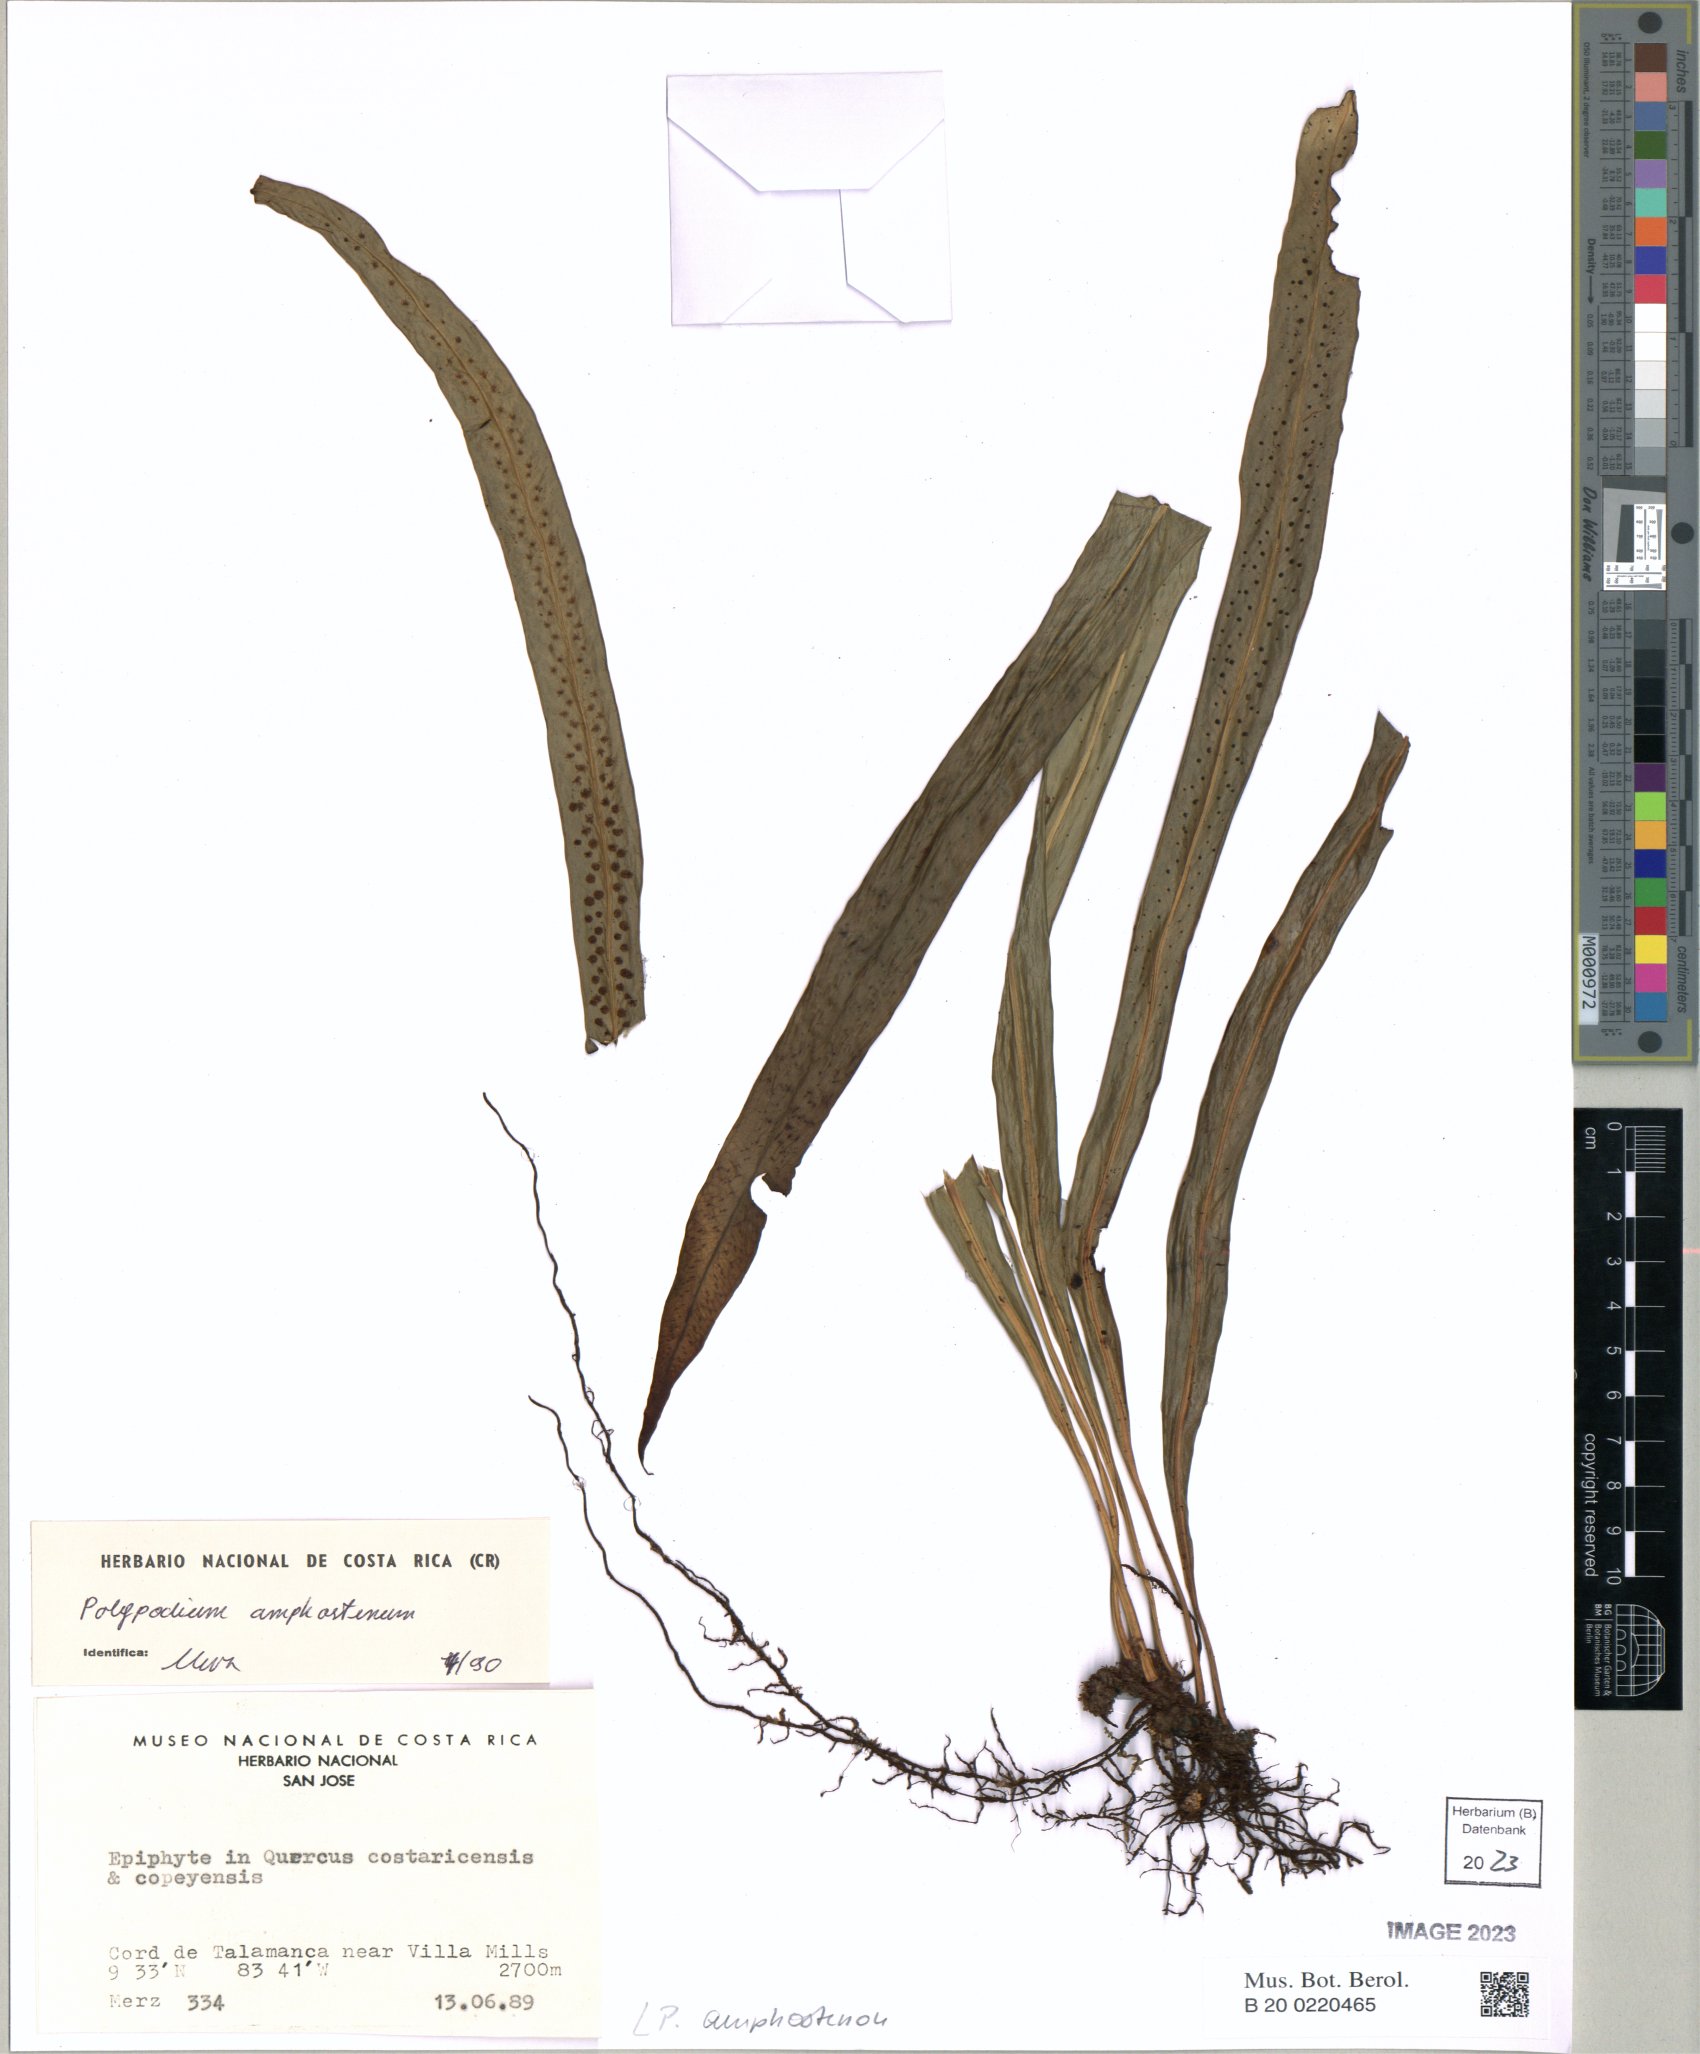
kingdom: Plantae
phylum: Tracheophyta
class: Polypodiopsida
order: Polypodiales
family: Polypodiaceae
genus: Campyloneurum
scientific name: Campyloneurum amphostenon
